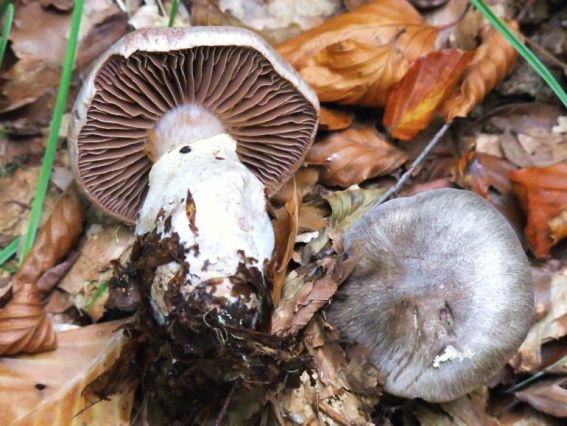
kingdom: Fungi
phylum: Basidiomycota
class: Agaricomycetes
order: Agaricales
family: Cortinariaceae
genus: Cortinarius
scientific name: Cortinarius torvus
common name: champignonagtig slørhat
